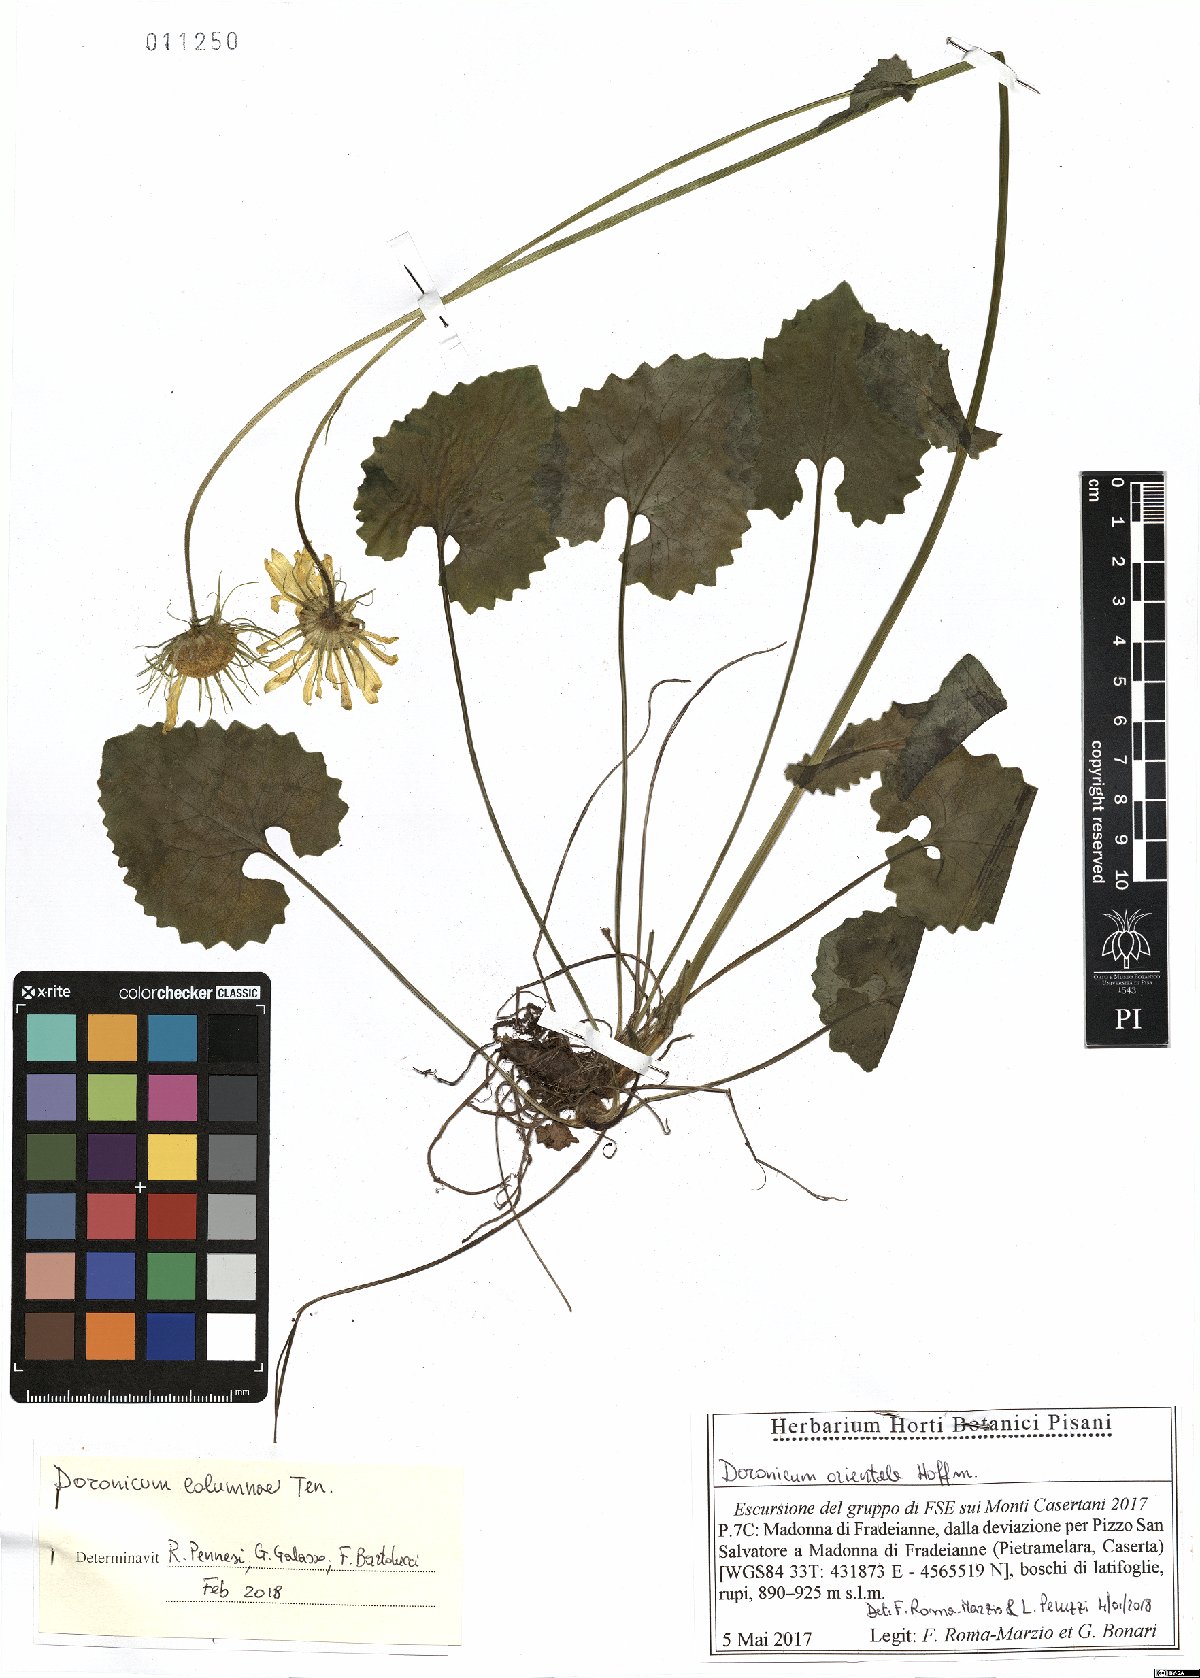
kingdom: Plantae
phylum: Tracheophyta
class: Magnoliopsida
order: Asterales
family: Asteraceae
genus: Doronicum
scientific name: Doronicum columnae
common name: Eastern leopard's-bane
